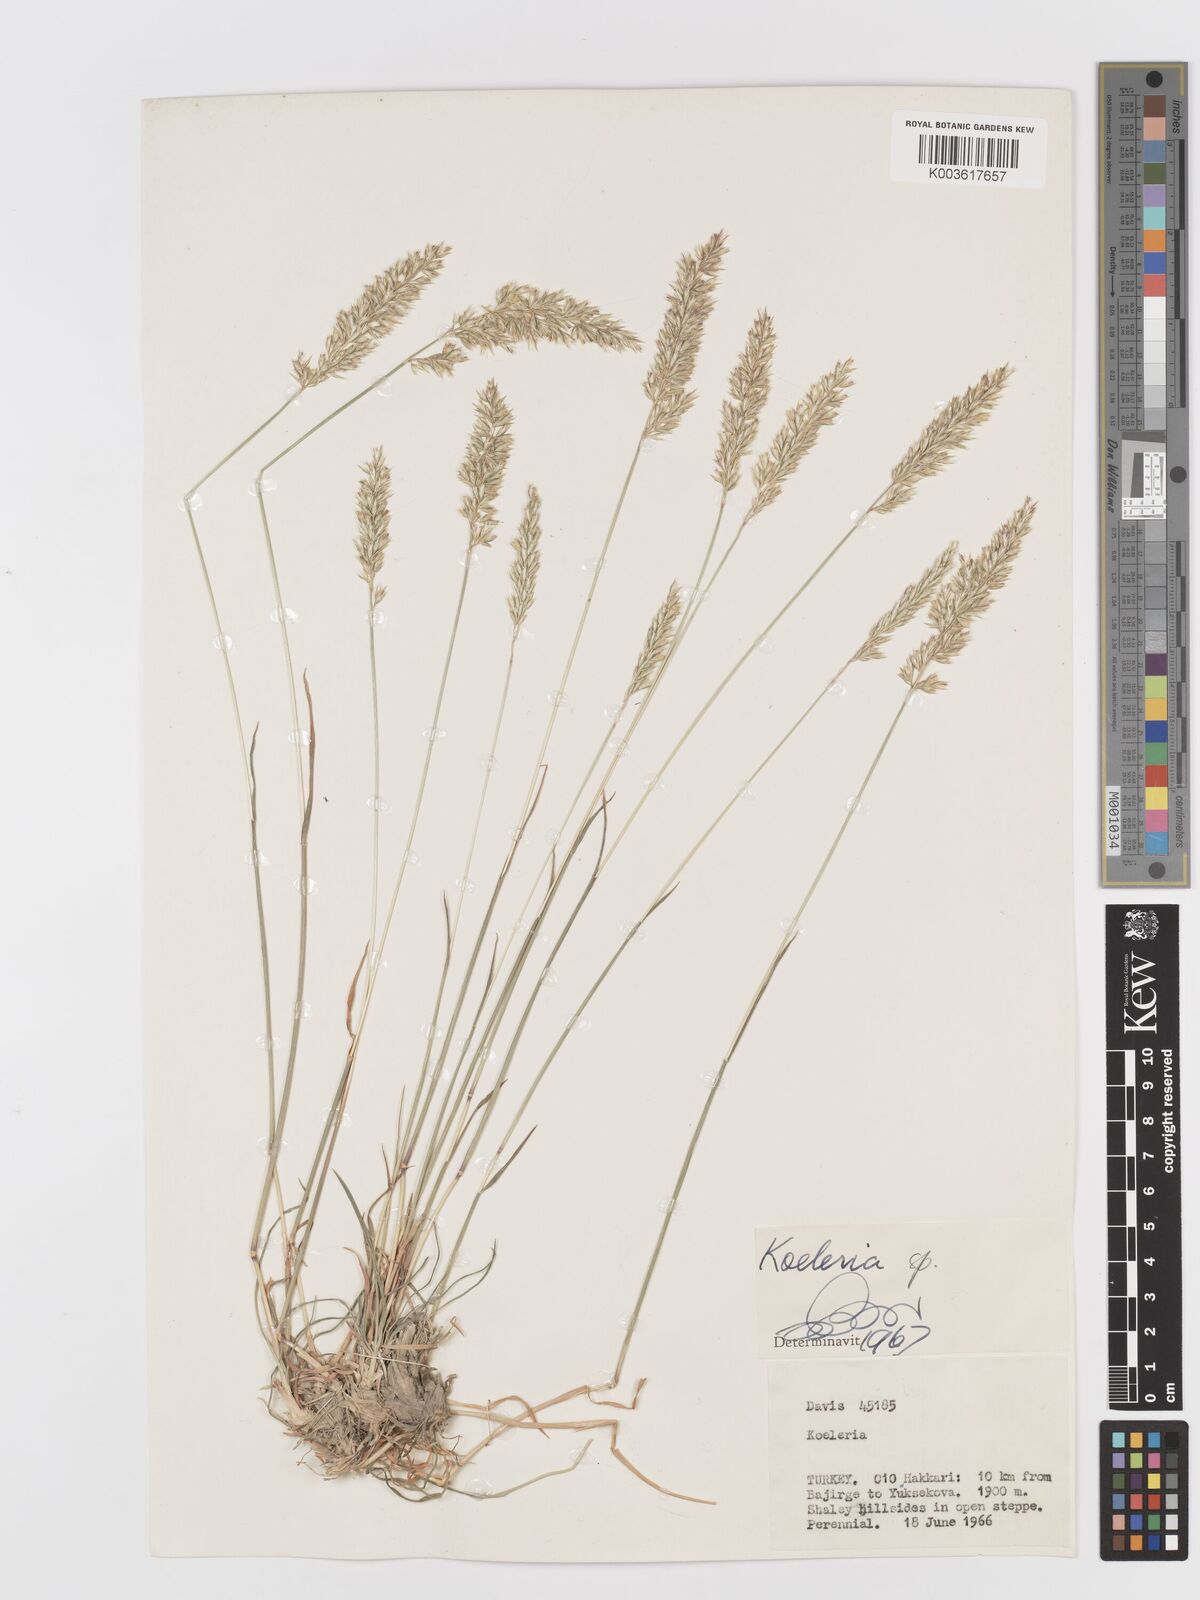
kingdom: Plantae
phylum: Tracheophyta
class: Liliopsida
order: Poales
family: Poaceae
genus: Koeleria
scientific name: Koeleria
